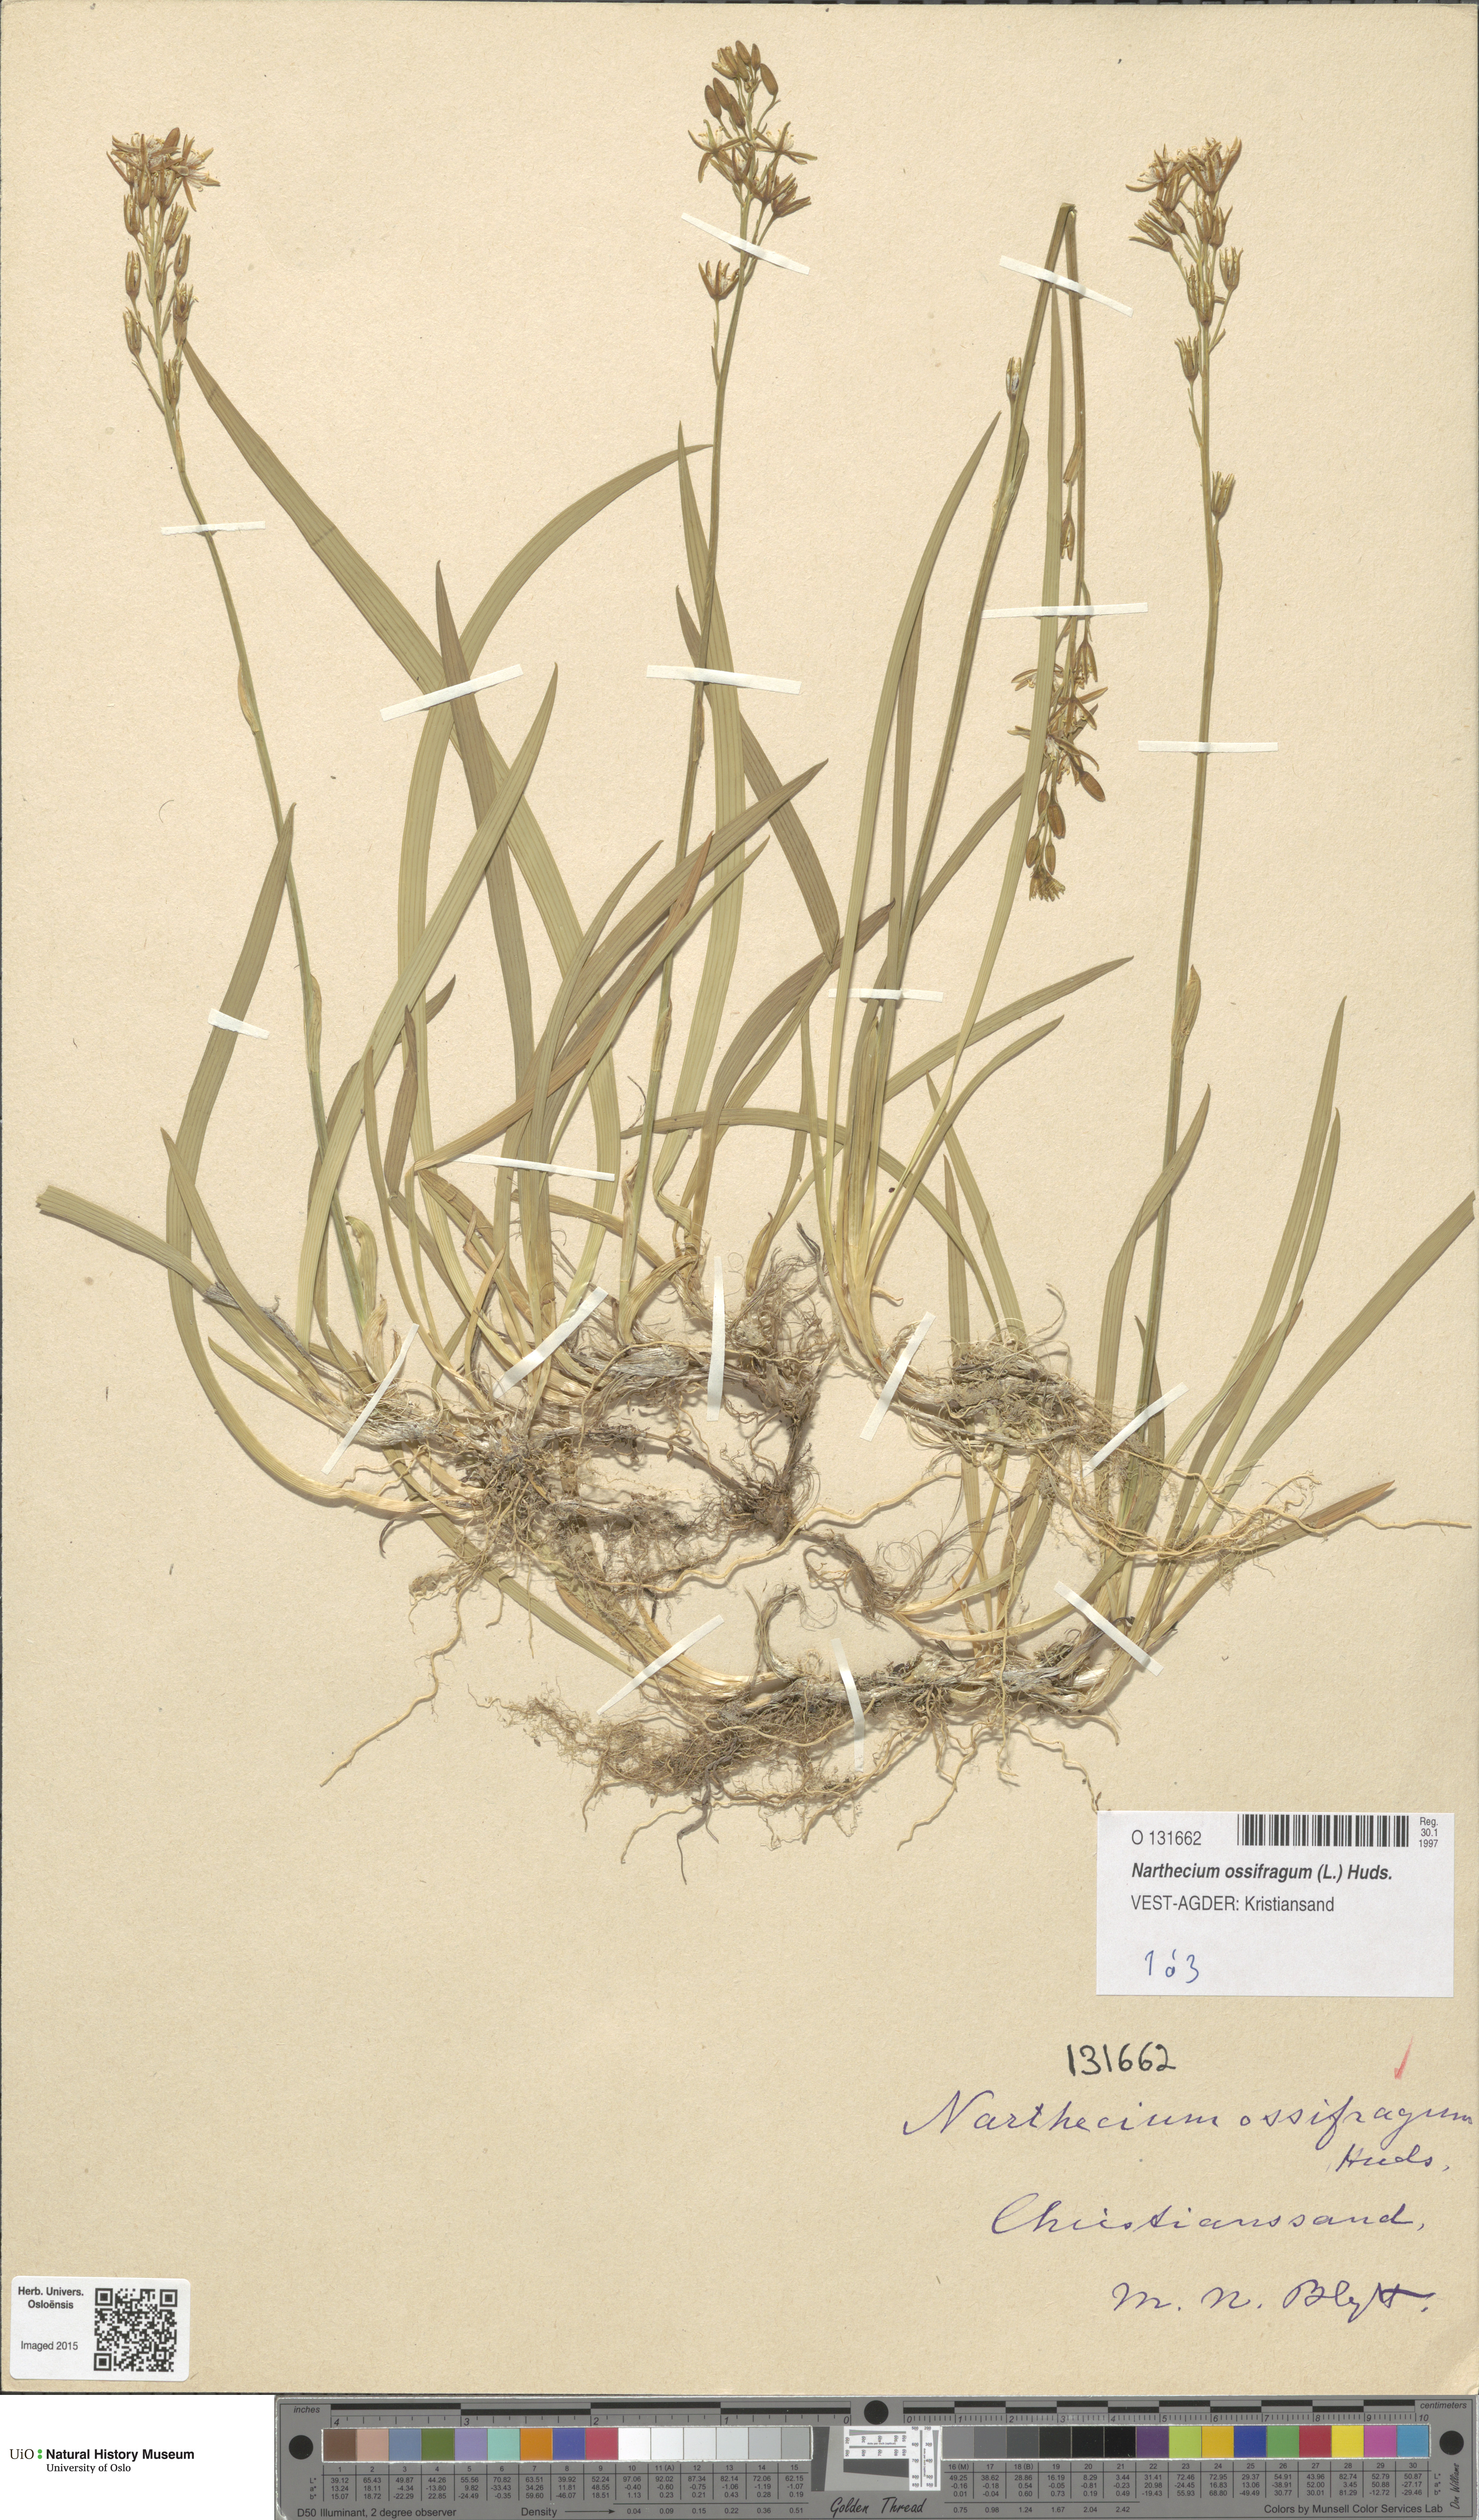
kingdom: Plantae
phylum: Tracheophyta
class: Liliopsida
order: Dioscoreales
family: Nartheciaceae
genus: Narthecium
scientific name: Narthecium ossifragum
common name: Bog asphodel
